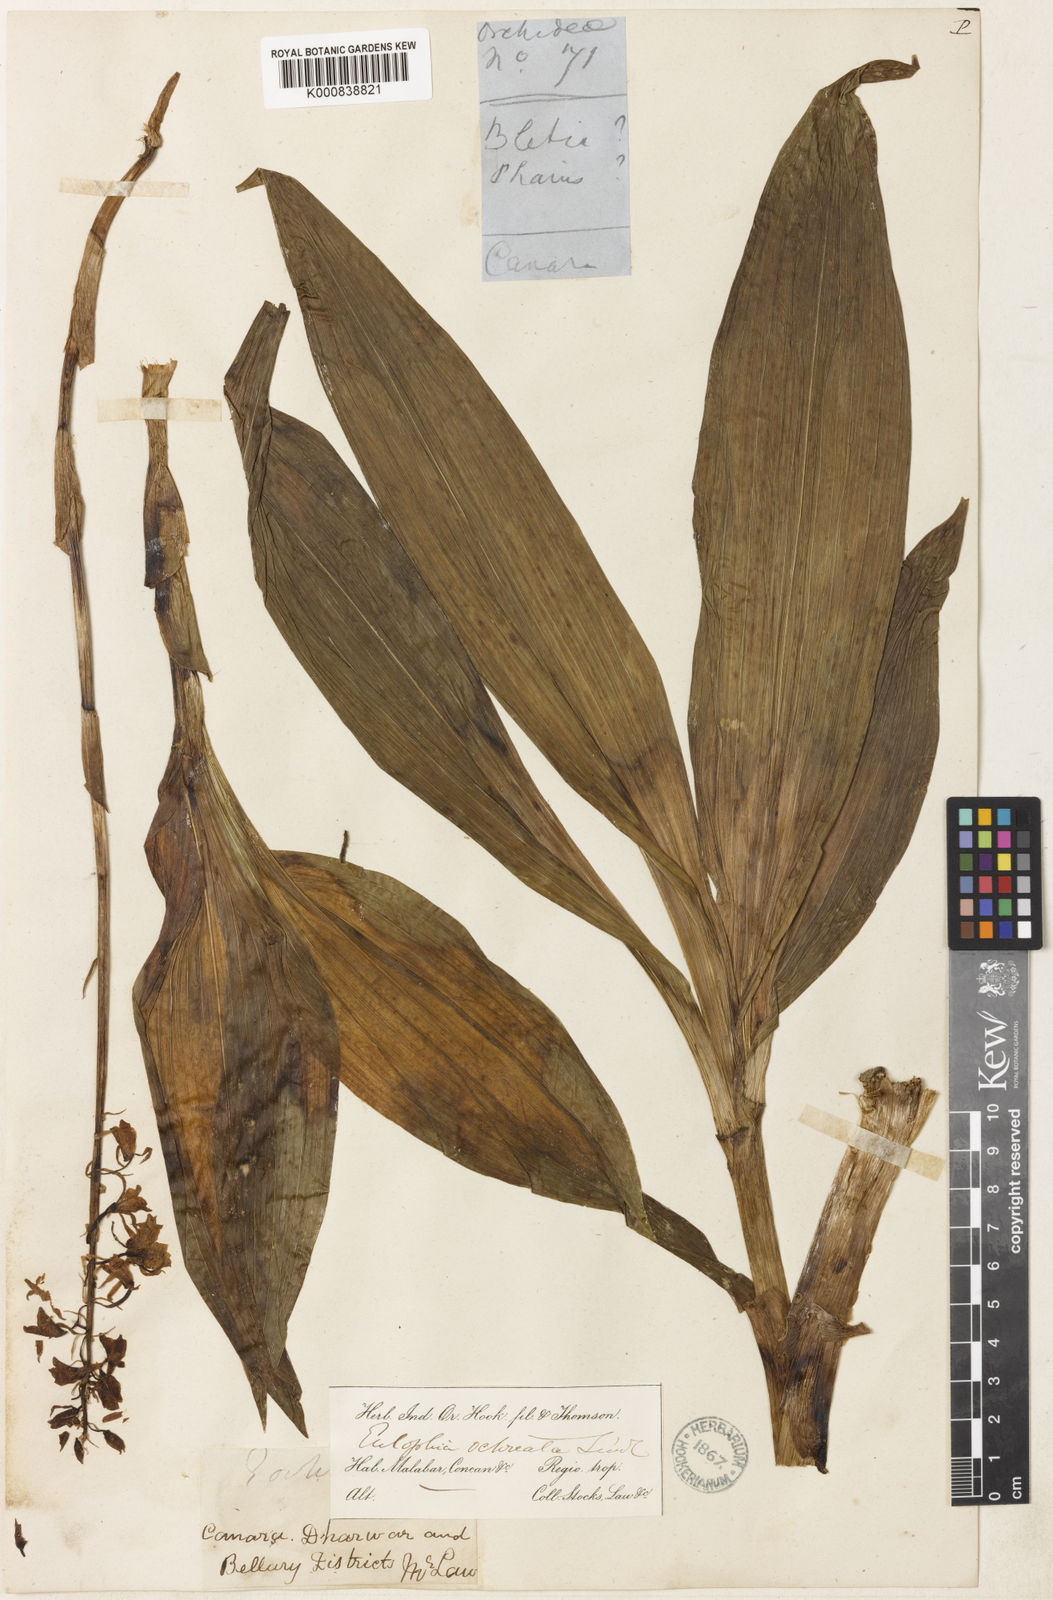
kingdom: Plantae
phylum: Tracheophyta
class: Liliopsida
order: Asparagales
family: Orchidaceae
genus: Eulophia
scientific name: Eulophia ochreata
